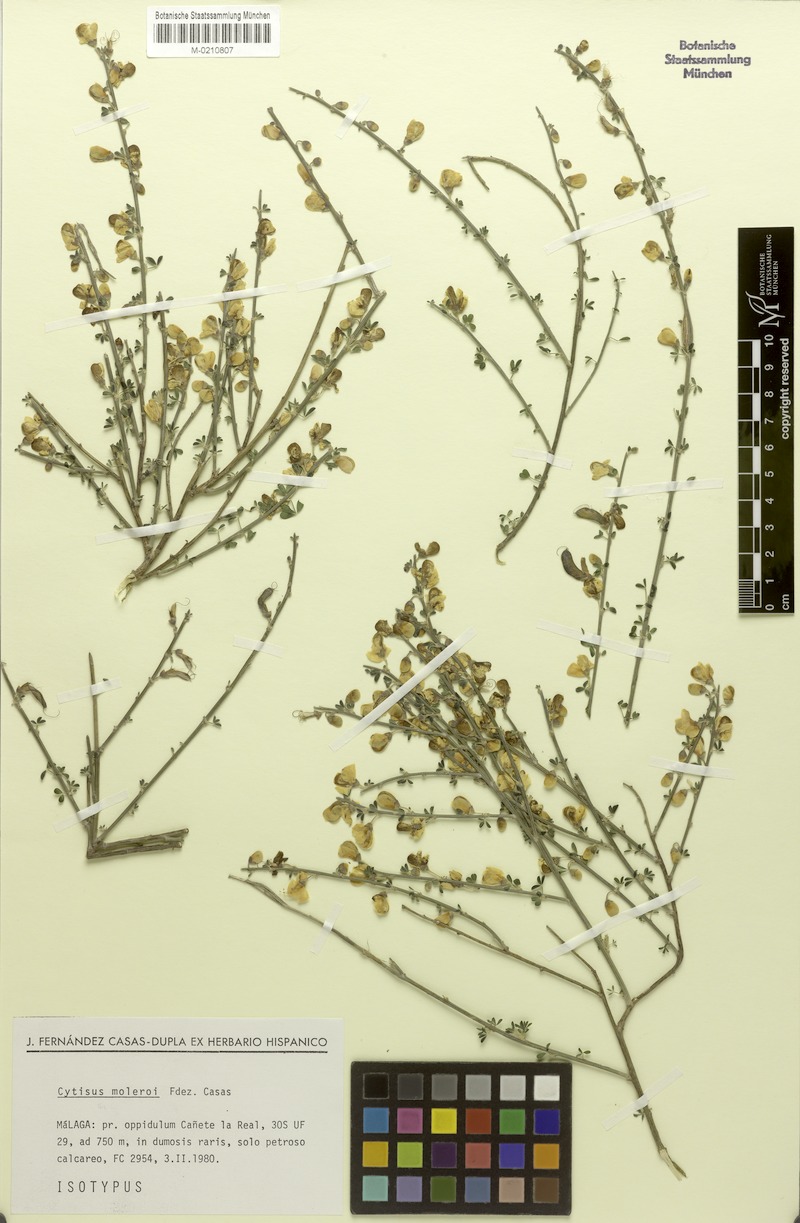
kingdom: Plantae
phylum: Tracheophyta
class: Magnoliopsida
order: Fabales
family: Fabaceae
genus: Cytisus
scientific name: Cytisus malacitanus
